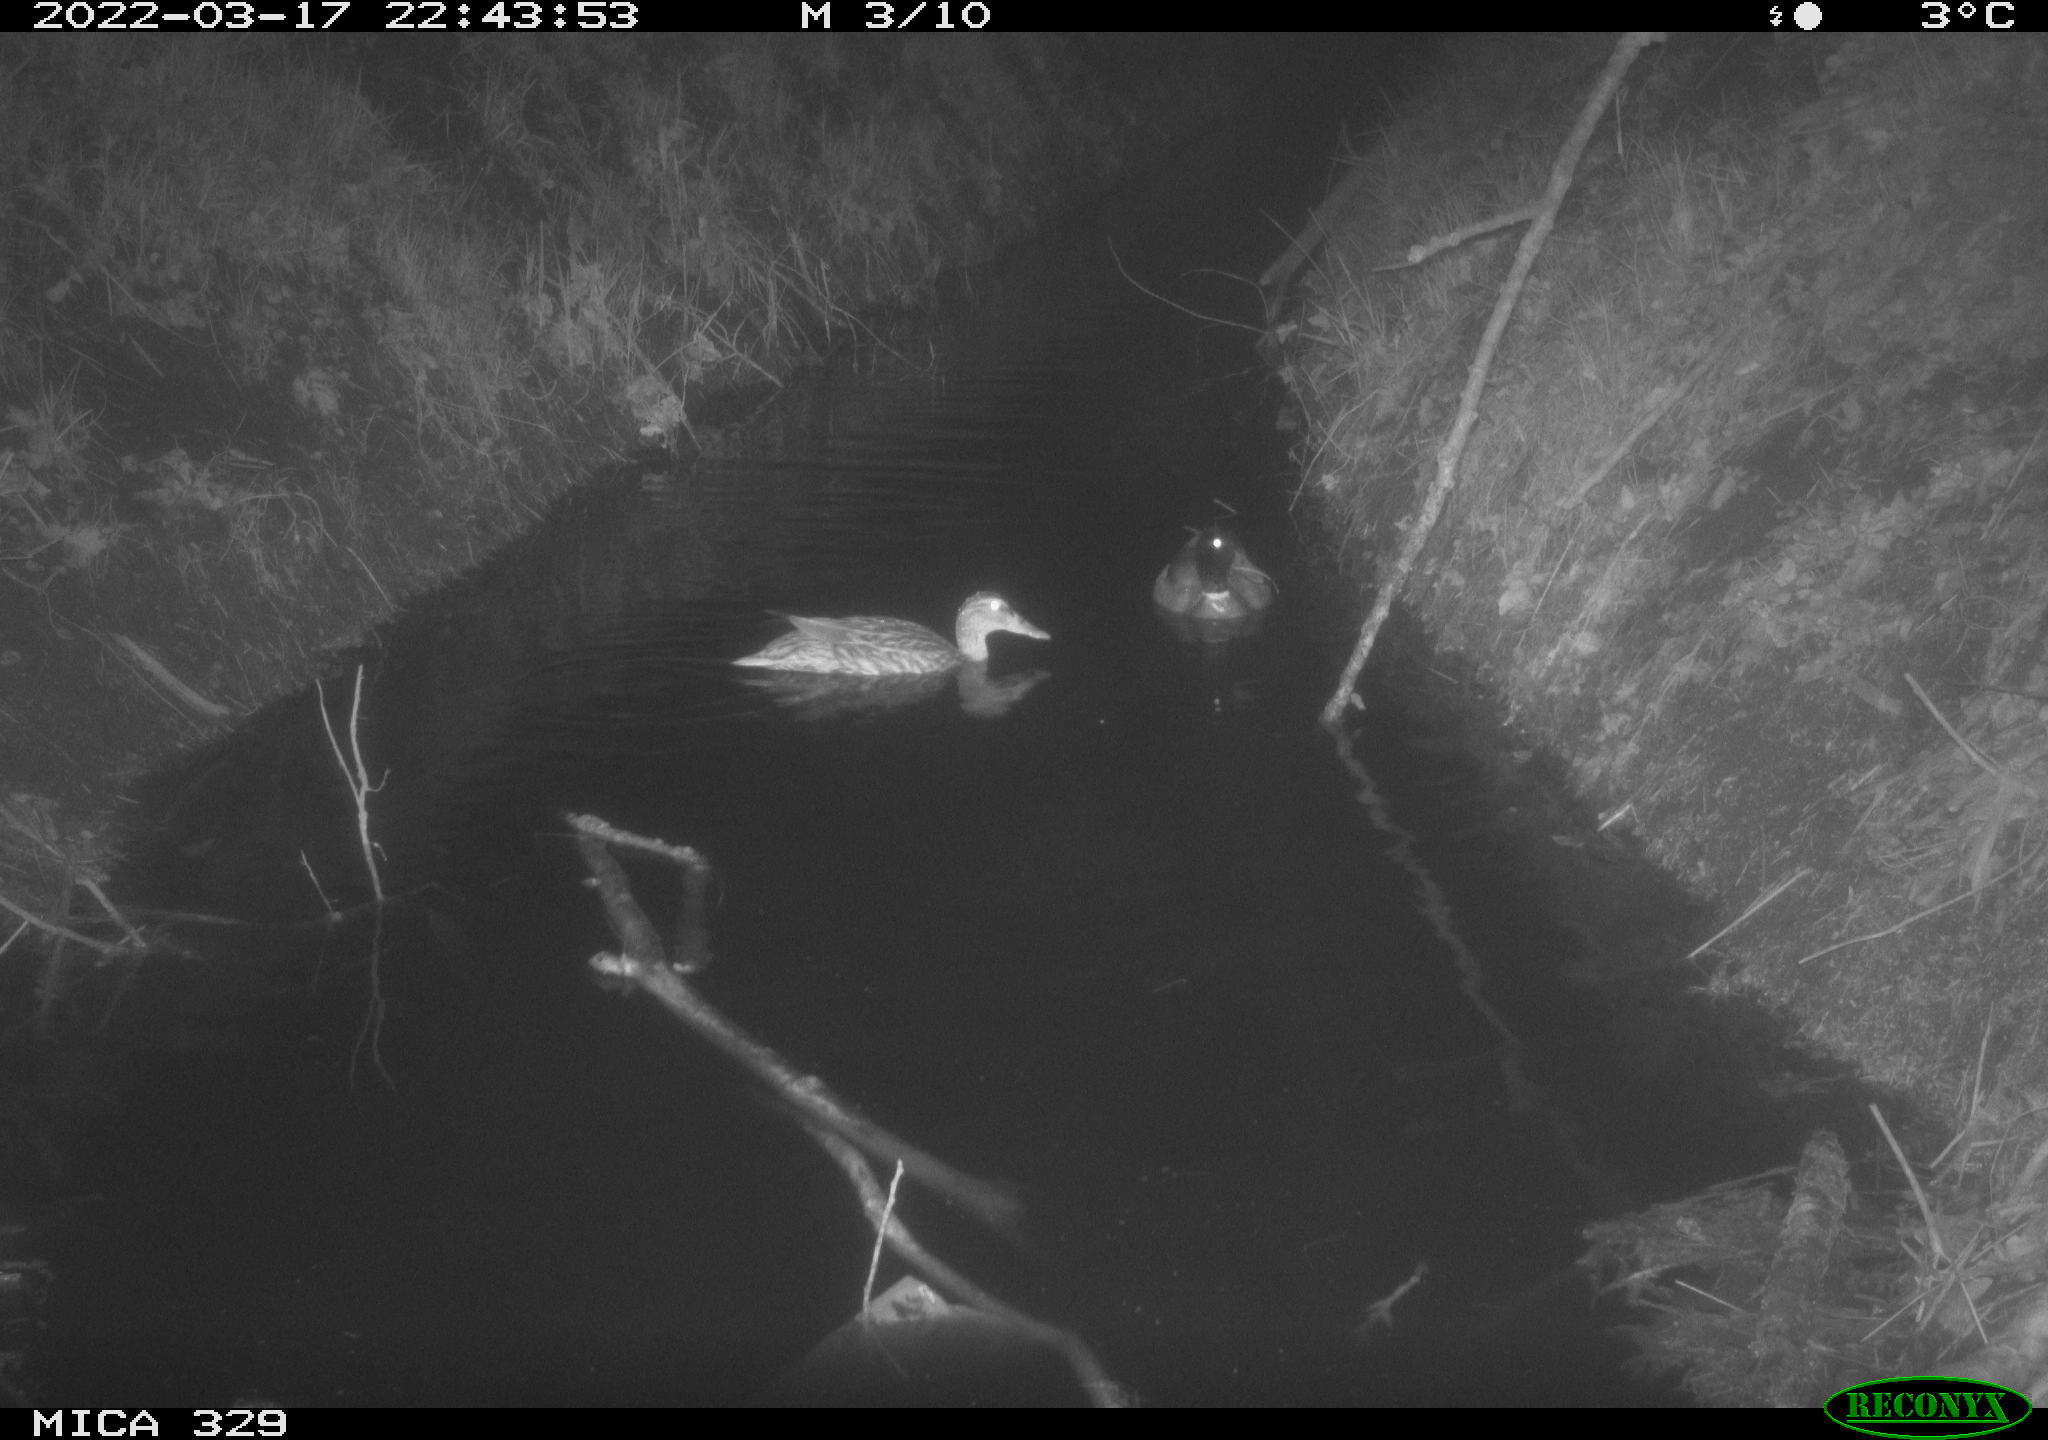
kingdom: Animalia
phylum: Chordata
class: Aves
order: Anseriformes
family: Anatidae
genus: Anas
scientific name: Anas platyrhynchos
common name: Mallard
